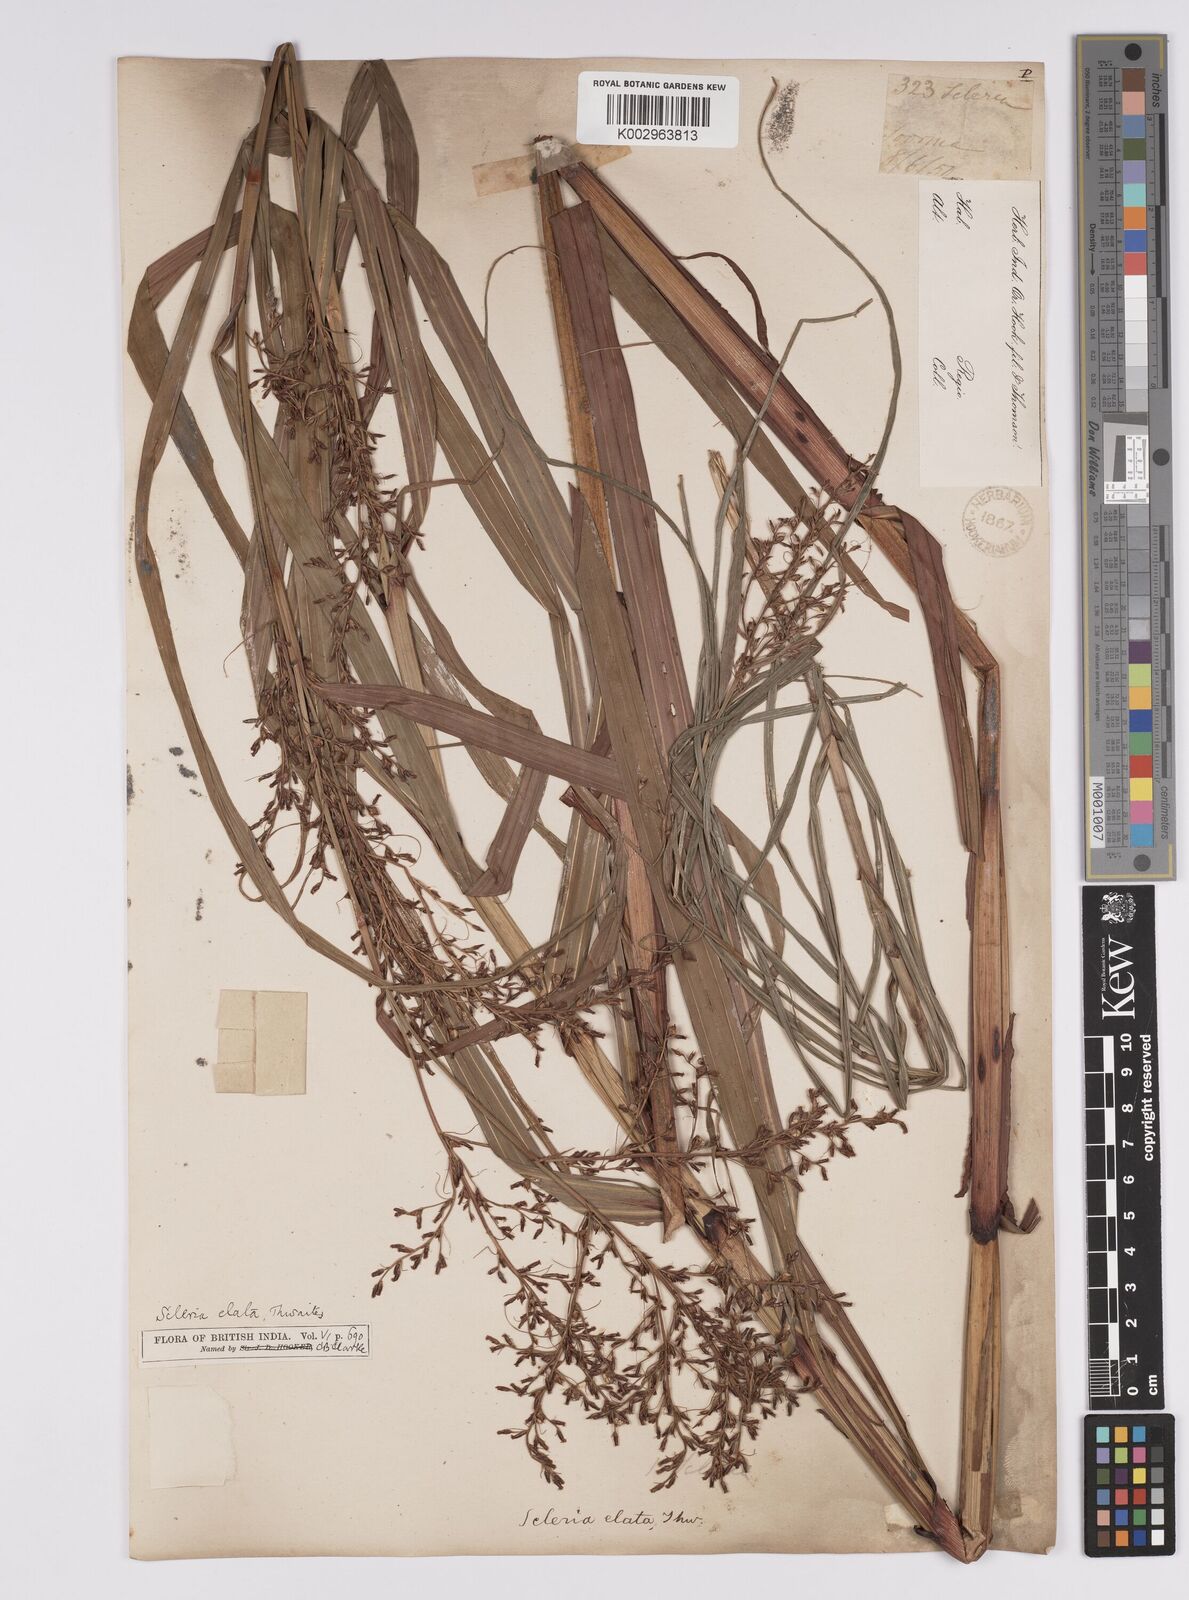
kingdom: Plantae
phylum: Tracheophyta
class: Liliopsida
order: Poales
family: Cyperaceae
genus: Scleria
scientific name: Scleria terrestris
